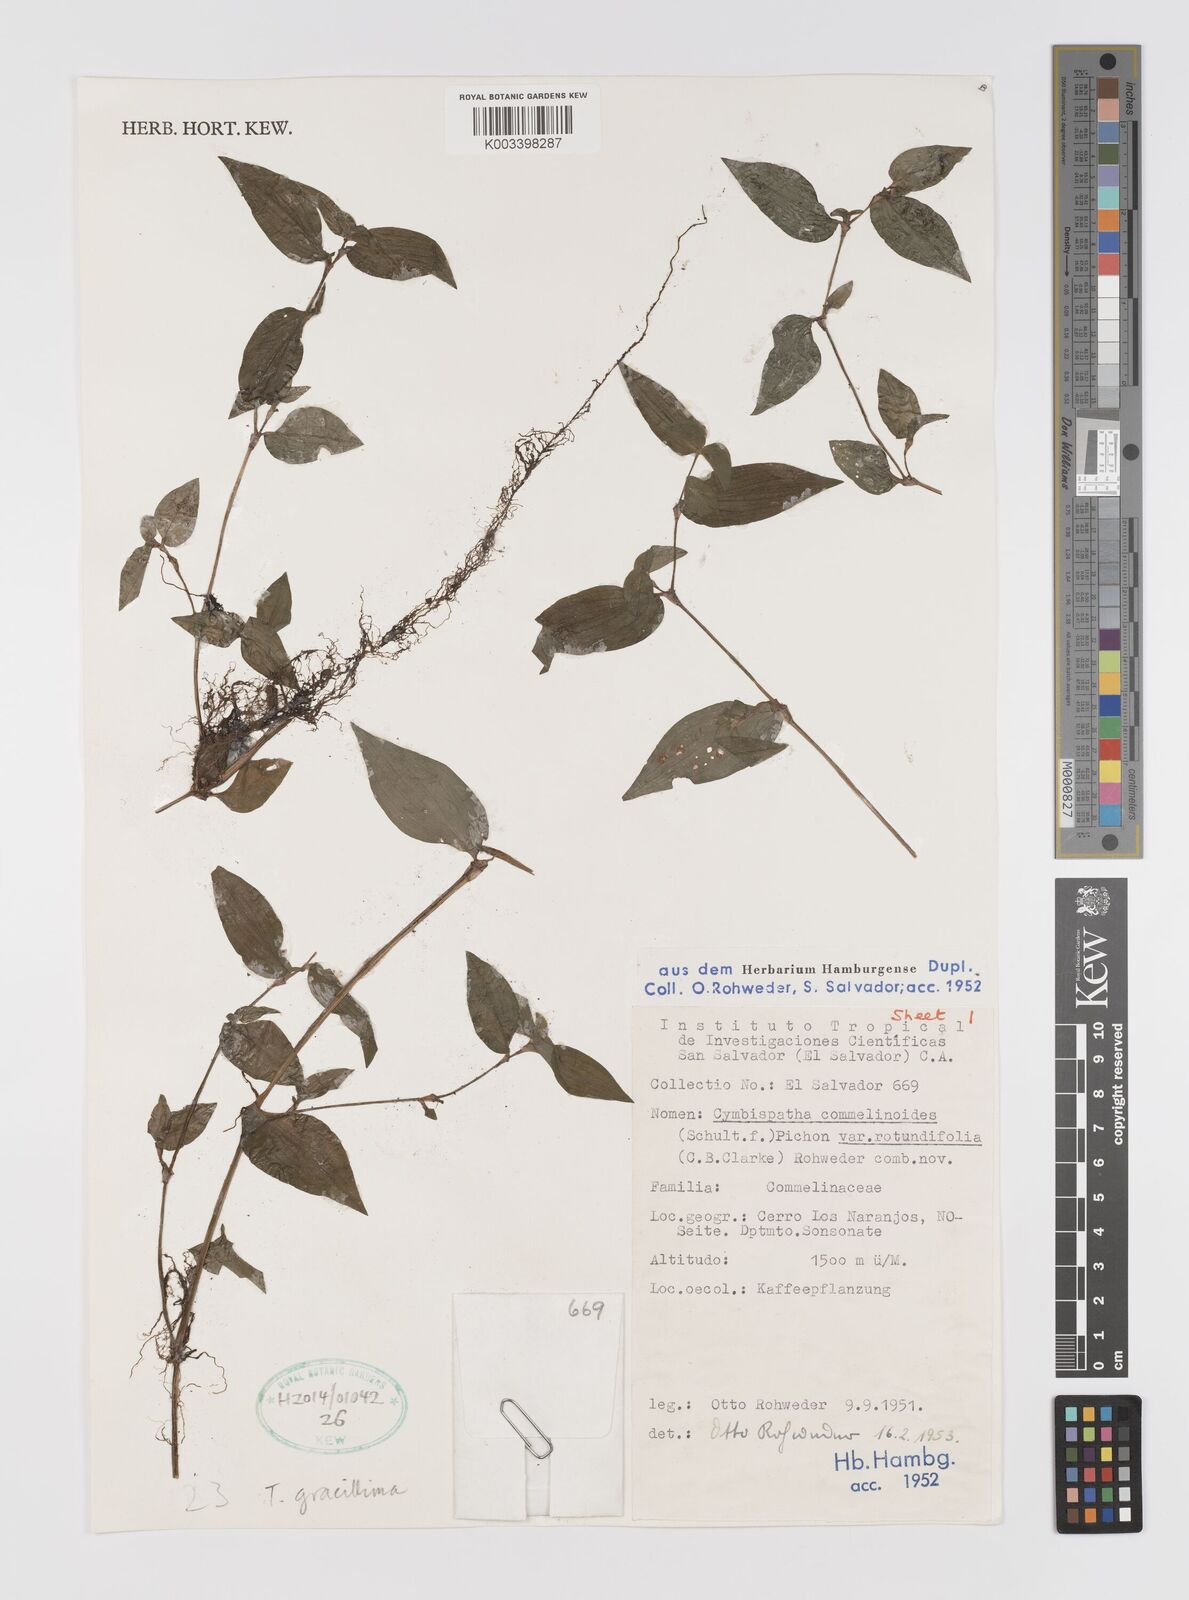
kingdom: Plantae
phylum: Tracheophyta
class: Liliopsida
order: Commelinales
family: Commelinaceae
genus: Tradescantia
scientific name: Tradescantia gracillima
